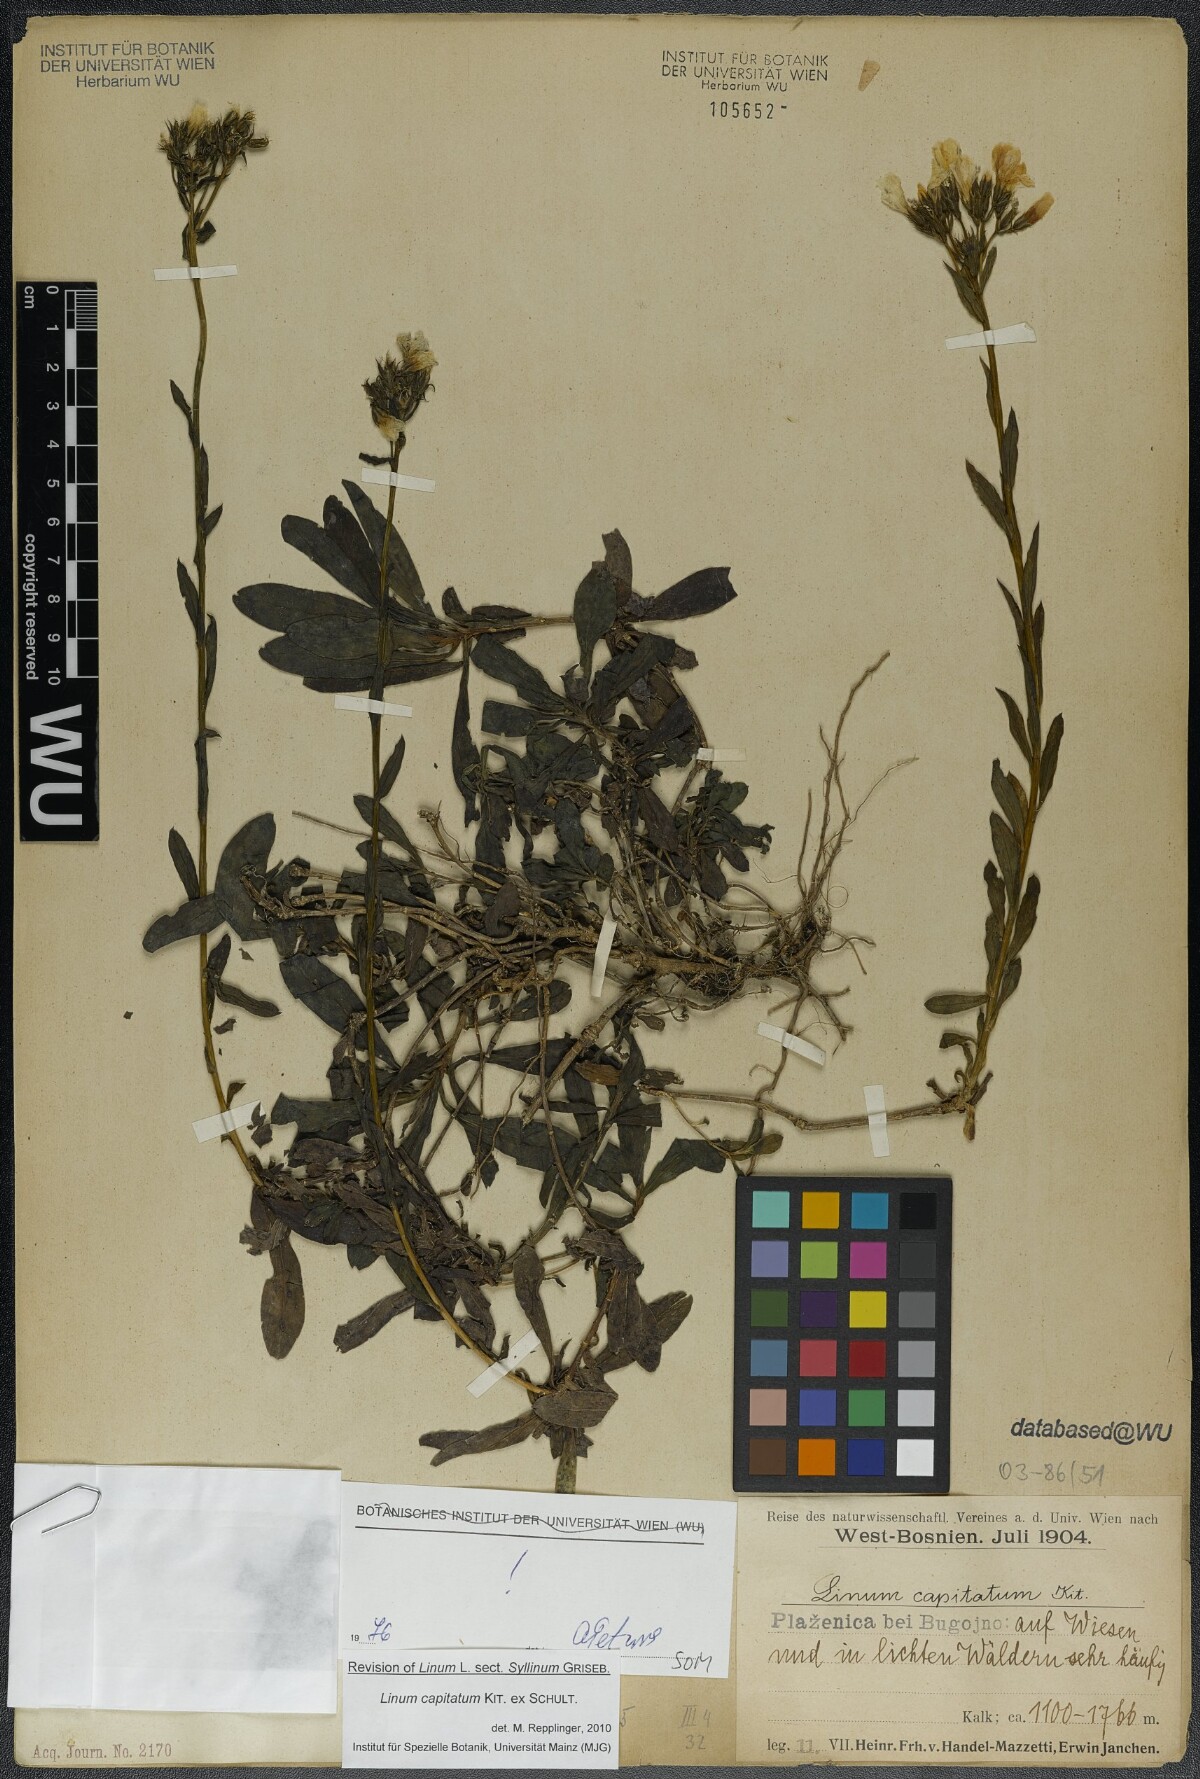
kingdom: Plantae
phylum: Tracheophyta
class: Magnoliopsida
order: Malpighiales
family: Linaceae
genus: Linum
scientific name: Linum capitatum
